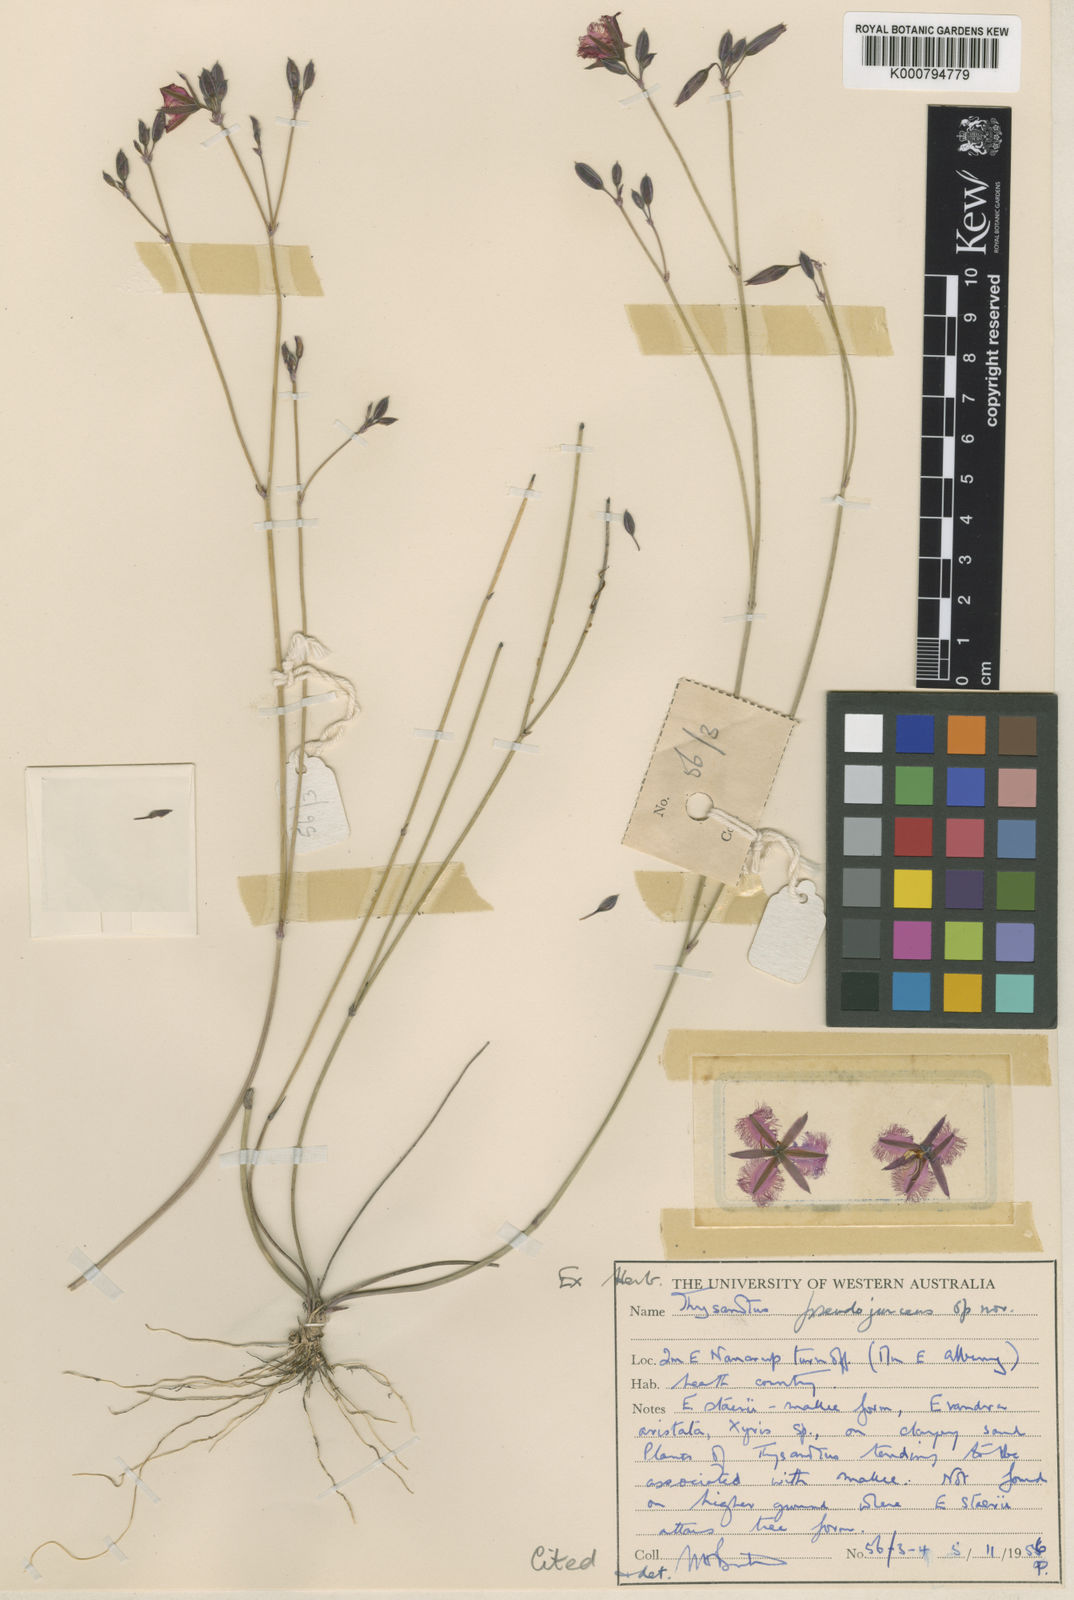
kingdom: Plantae
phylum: Tracheophyta
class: Liliopsida
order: Asparagales
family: Asparagaceae
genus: Thysanotus
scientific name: Thysanotus pseudojunceus
